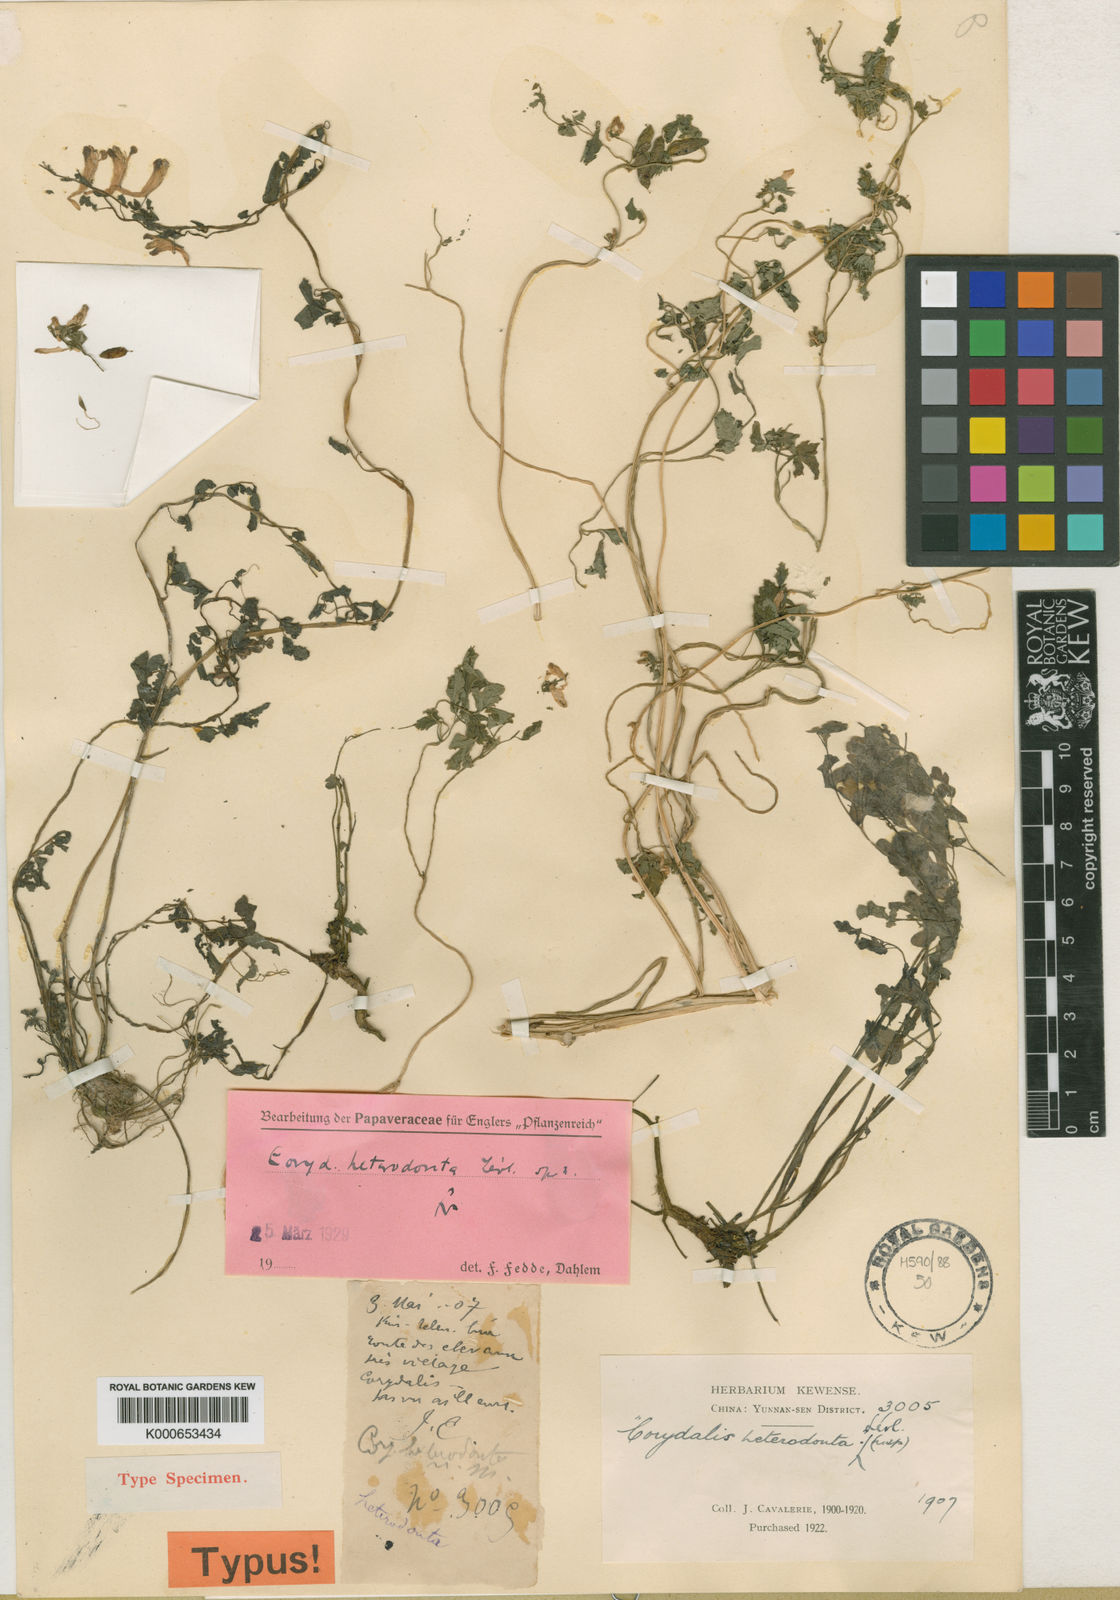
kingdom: Plantae
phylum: Tracheophyta
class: Magnoliopsida
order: Ranunculales
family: Papaveraceae
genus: Corydalis
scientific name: Corydalis
